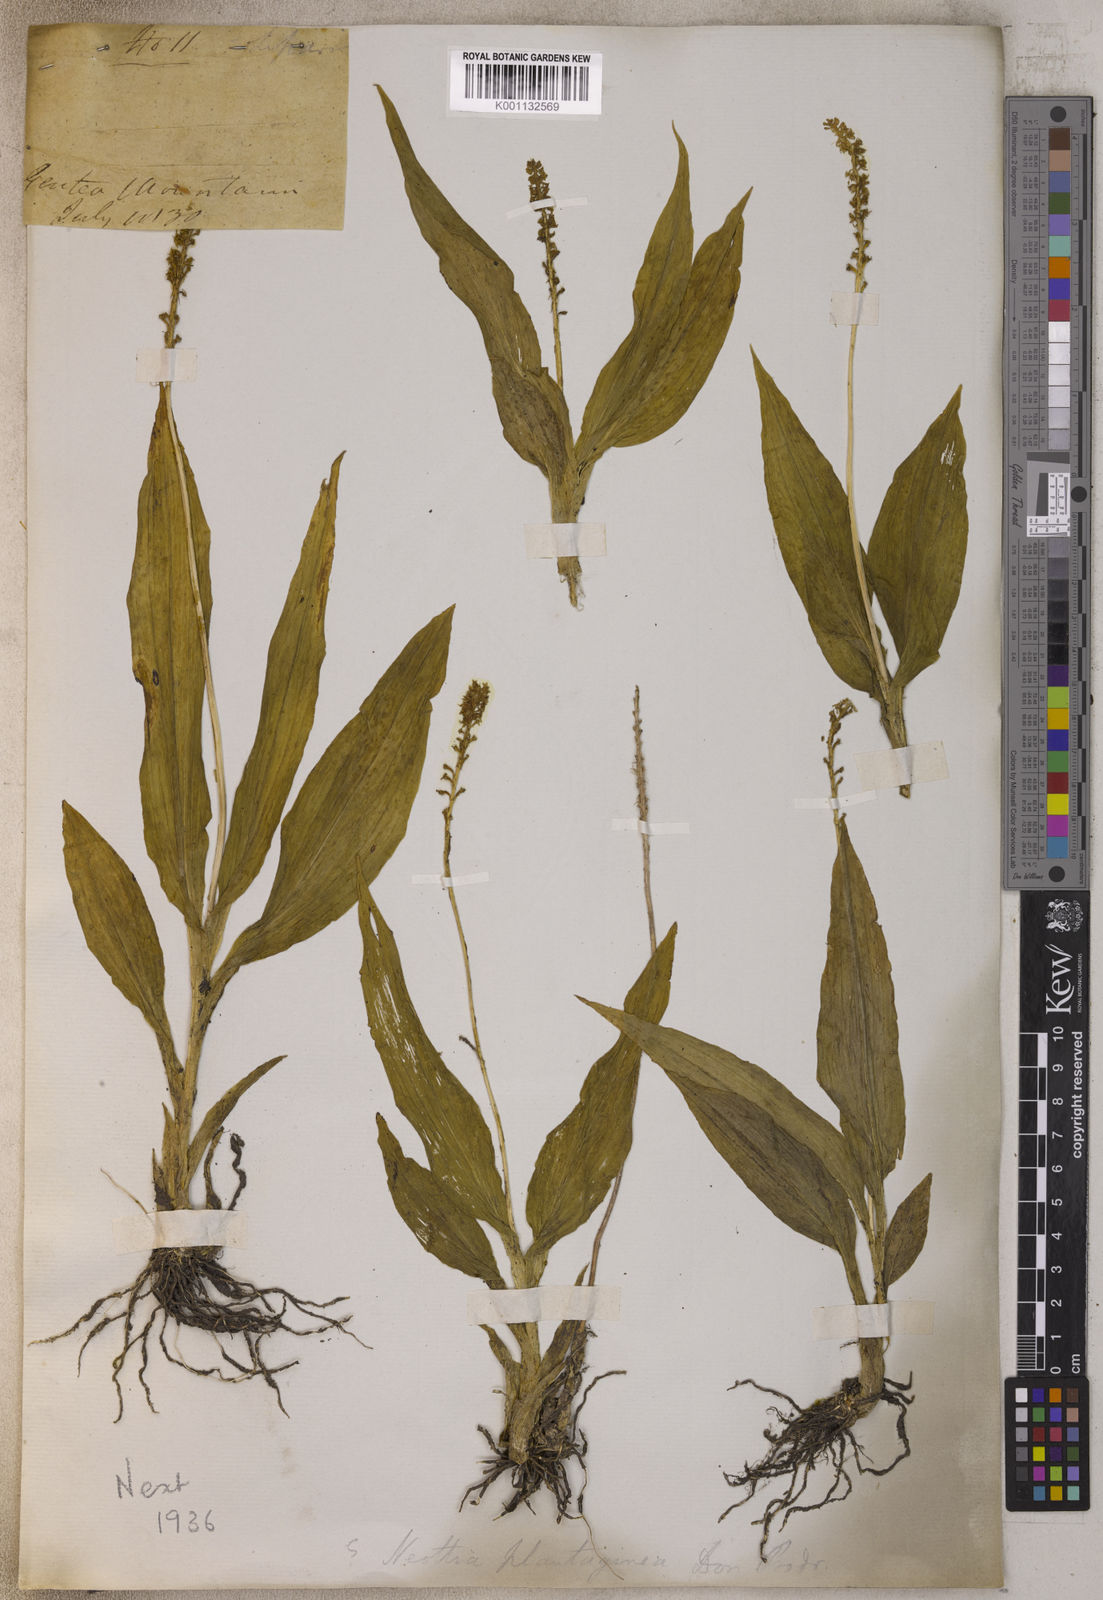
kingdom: Plantae
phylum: Tracheophyta
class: Liliopsida
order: Asparagales
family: Orchidaceae
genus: Malaxis
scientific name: Malaxis
